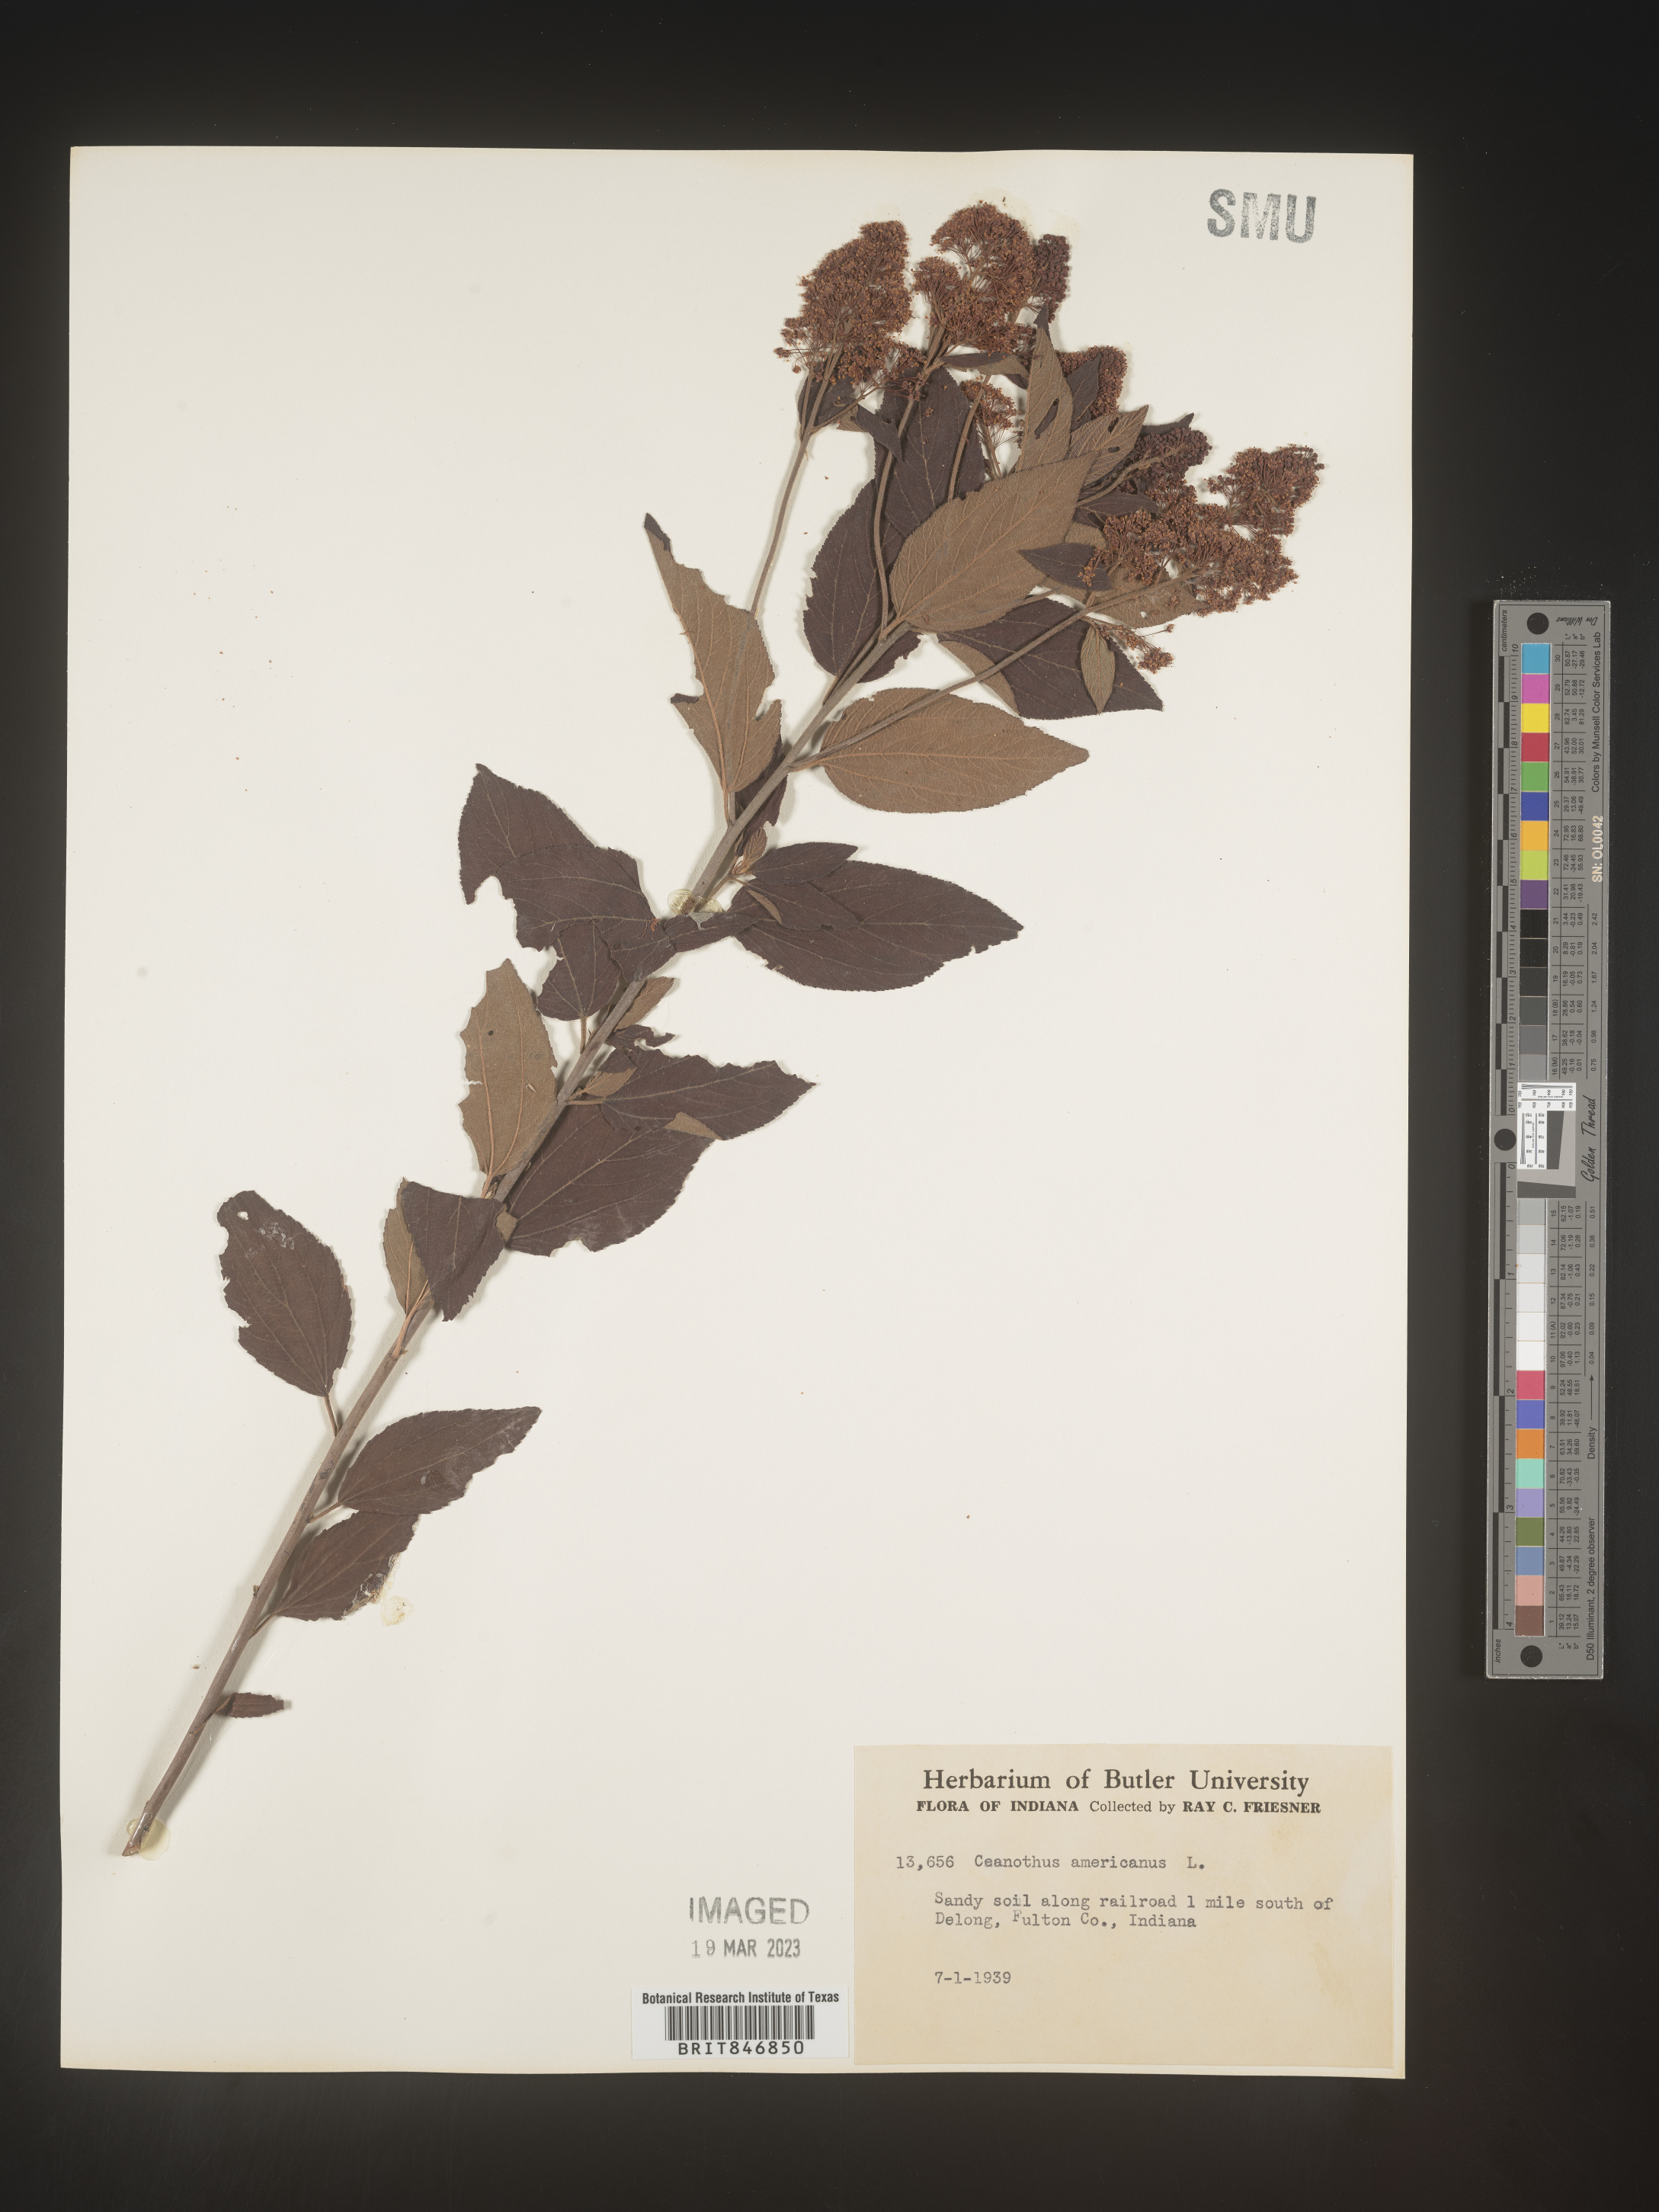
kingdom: Plantae
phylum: Tracheophyta
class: Magnoliopsida
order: Rosales
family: Rhamnaceae
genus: Ceanothus
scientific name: Ceanothus americanus
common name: Redroot
